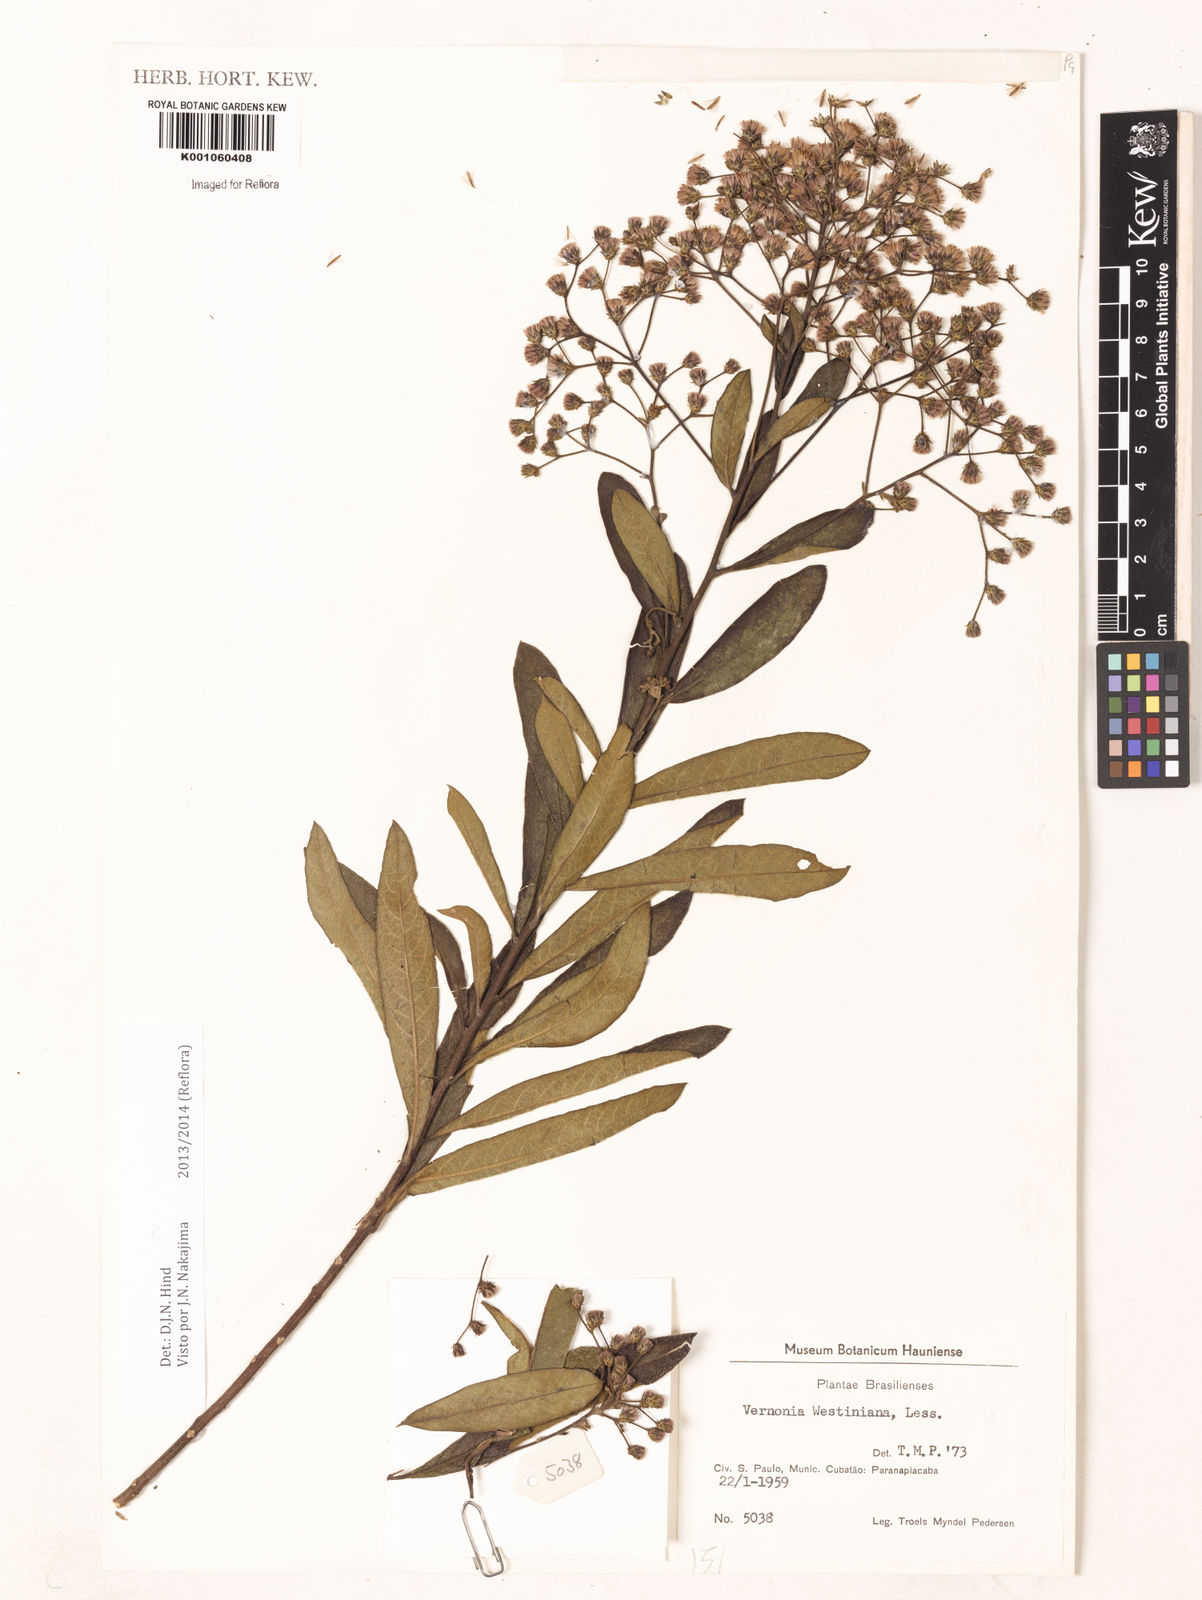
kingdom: Plantae
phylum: Tracheophyta
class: Magnoliopsida
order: Asterales
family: Asteraceae
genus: Vernonanthura
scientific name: Vernonanthura westiniana
